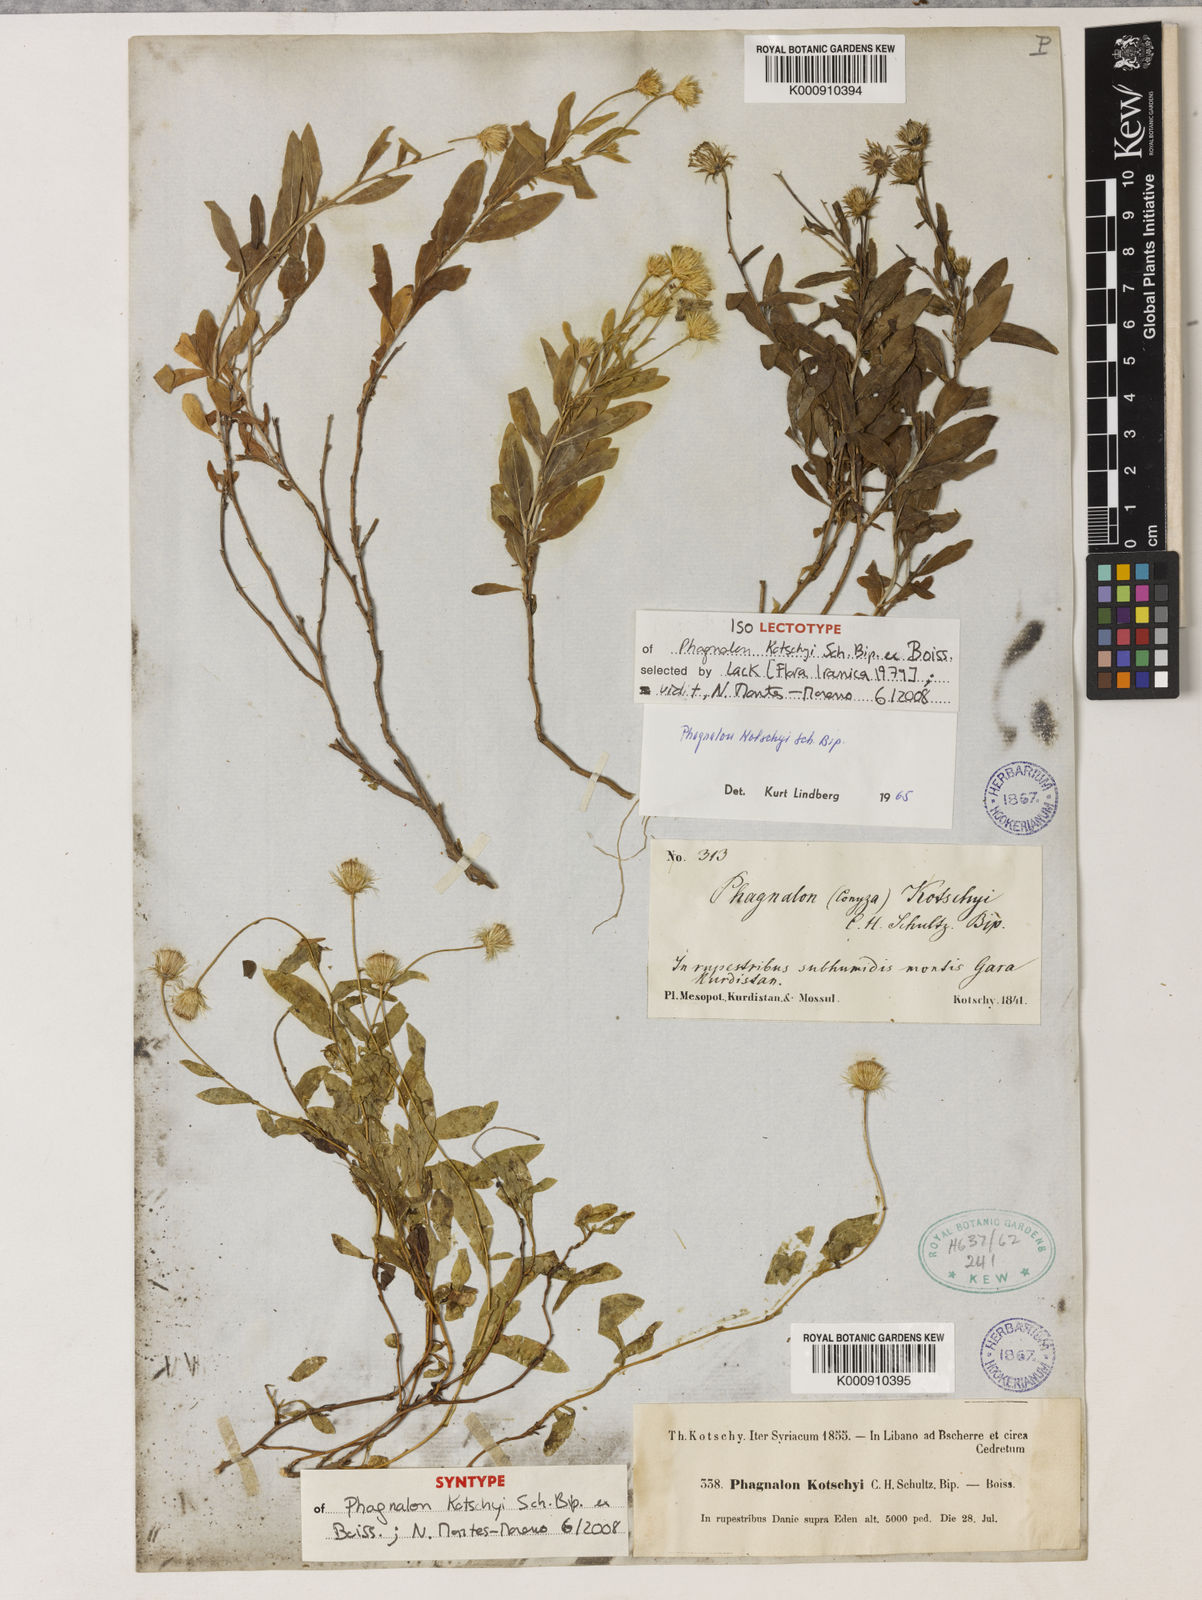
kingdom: Plantae
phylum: Tracheophyta
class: Magnoliopsida
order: Asterales
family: Asteraceae
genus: Phagnalon
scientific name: Phagnalon kotschyi
